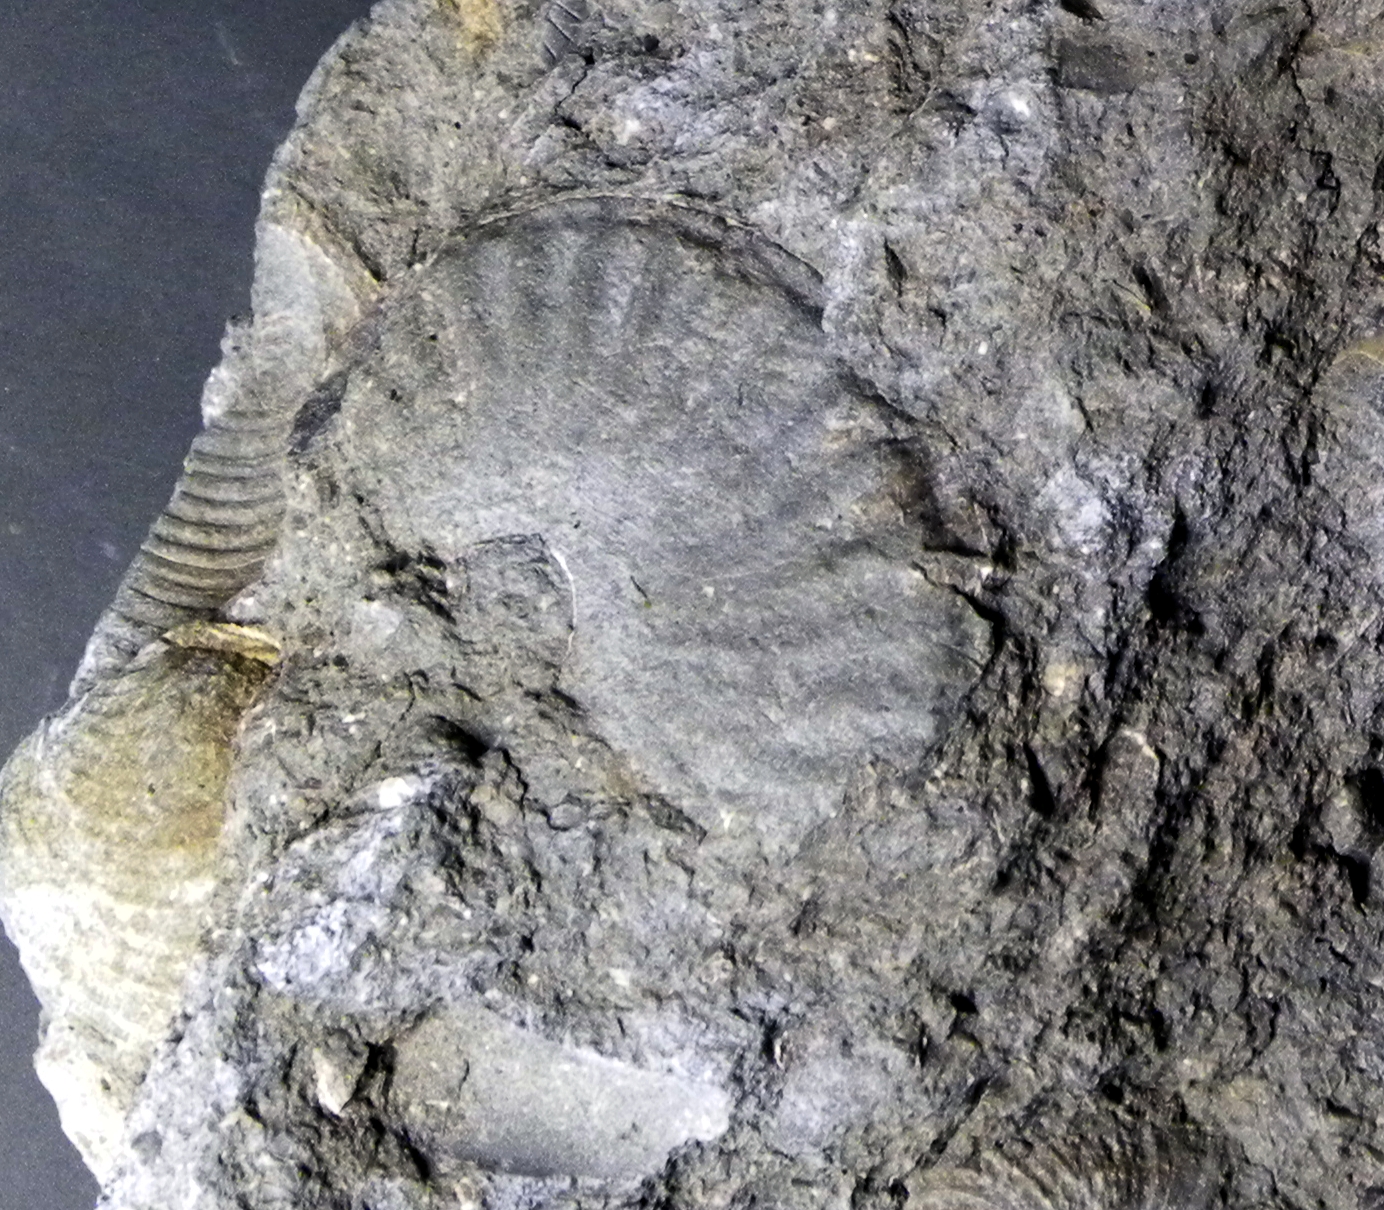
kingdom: Animalia
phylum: Mollusca
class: Cephalopoda
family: Hildoceratidae
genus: Pseudolioceras
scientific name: Pseudolioceras compactile
